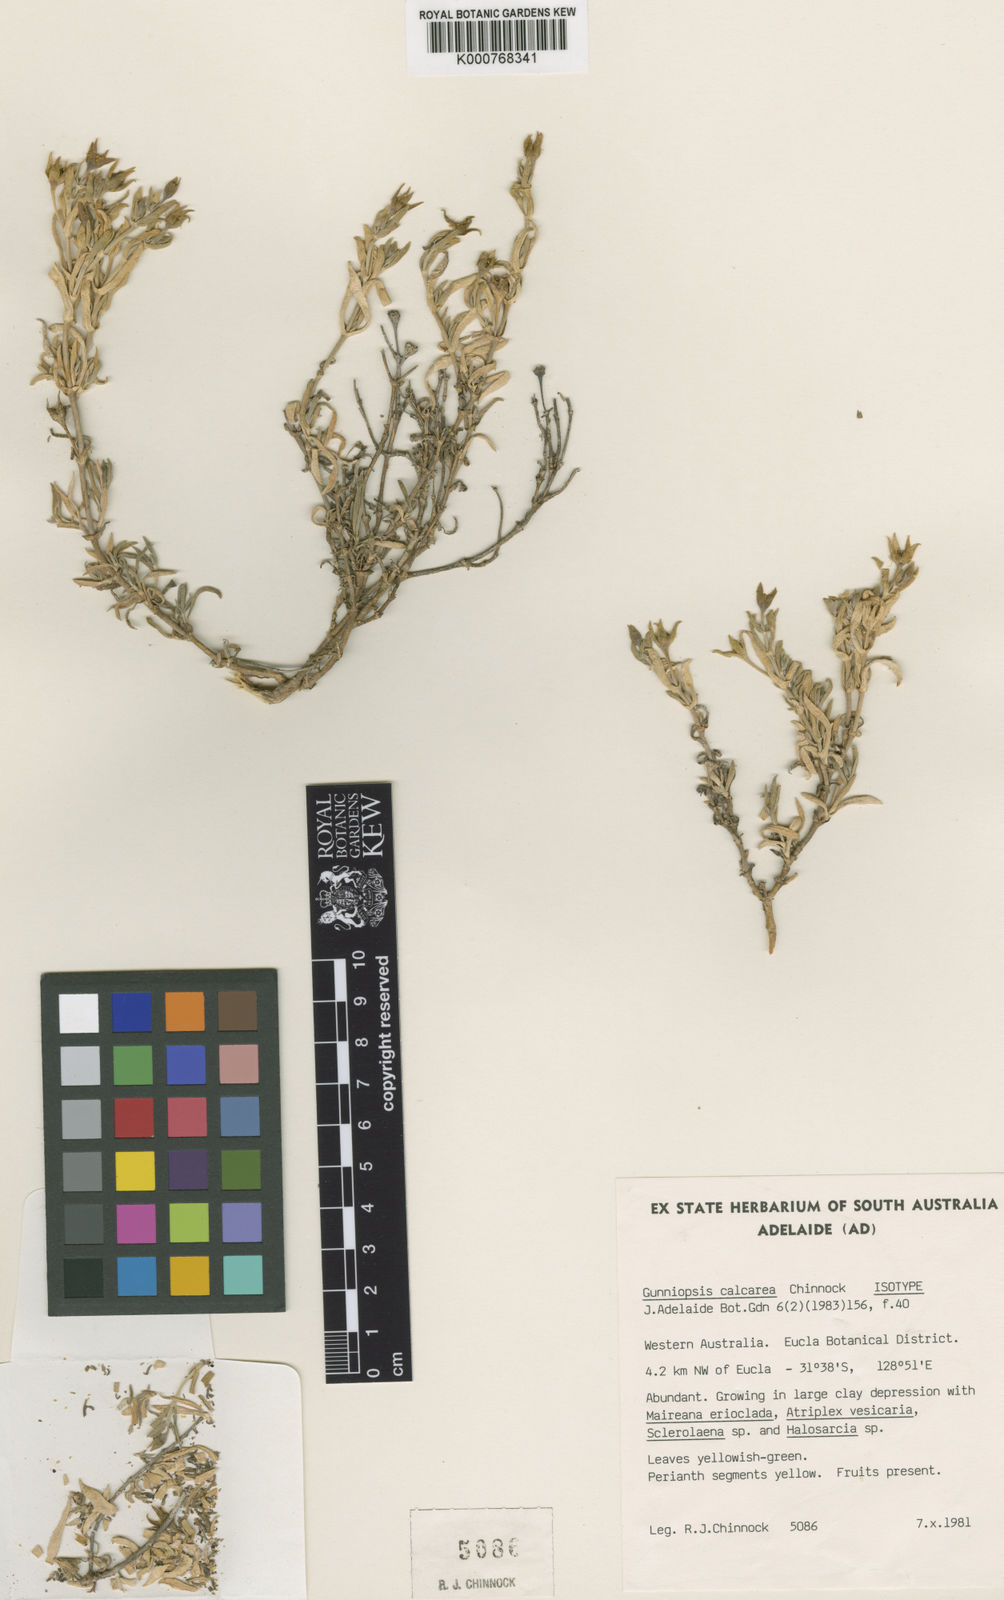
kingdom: Plantae
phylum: Tracheophyta
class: Magnoliopsida
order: Caryophyllales
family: Aizoaceae
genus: Gunniopsis
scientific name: Gunniopsis calcarea
